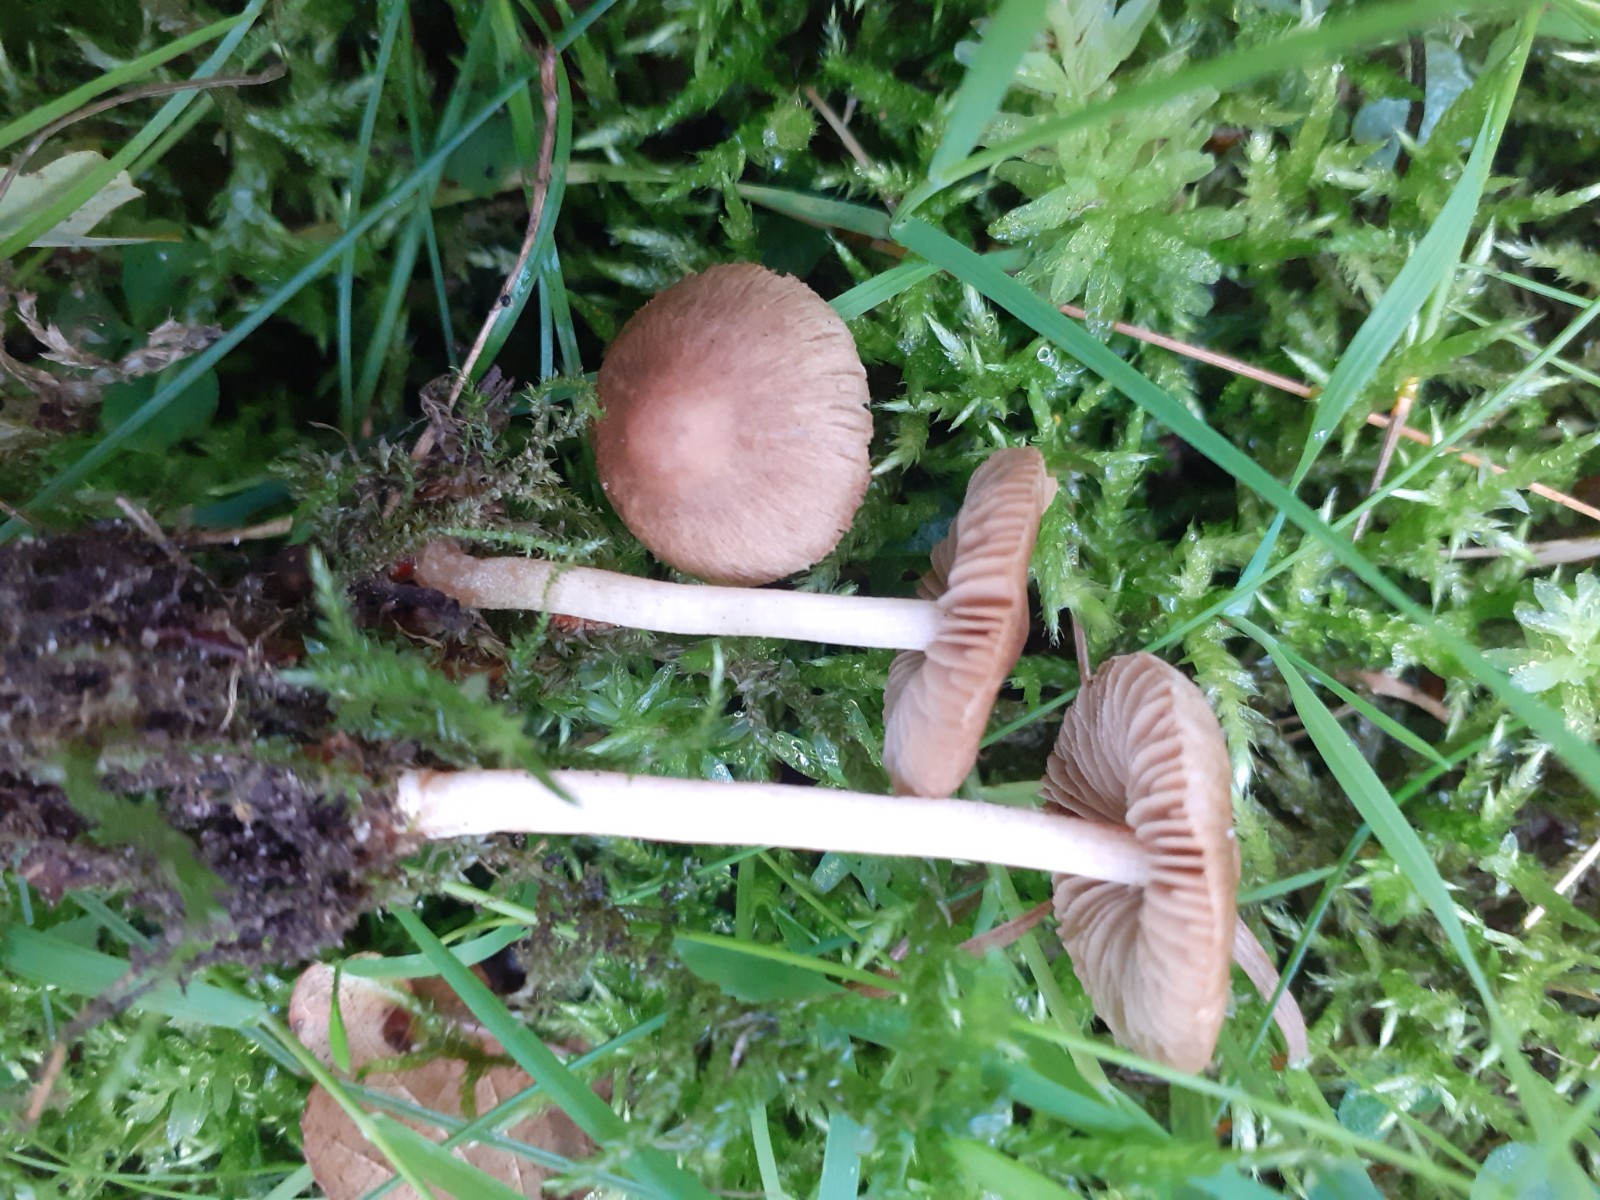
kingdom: Fungi
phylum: Basidiomycota
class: Agaricomycetes
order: Agaricales
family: Inocybaceae
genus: Inocybe
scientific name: Inocybe
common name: trævlhat
